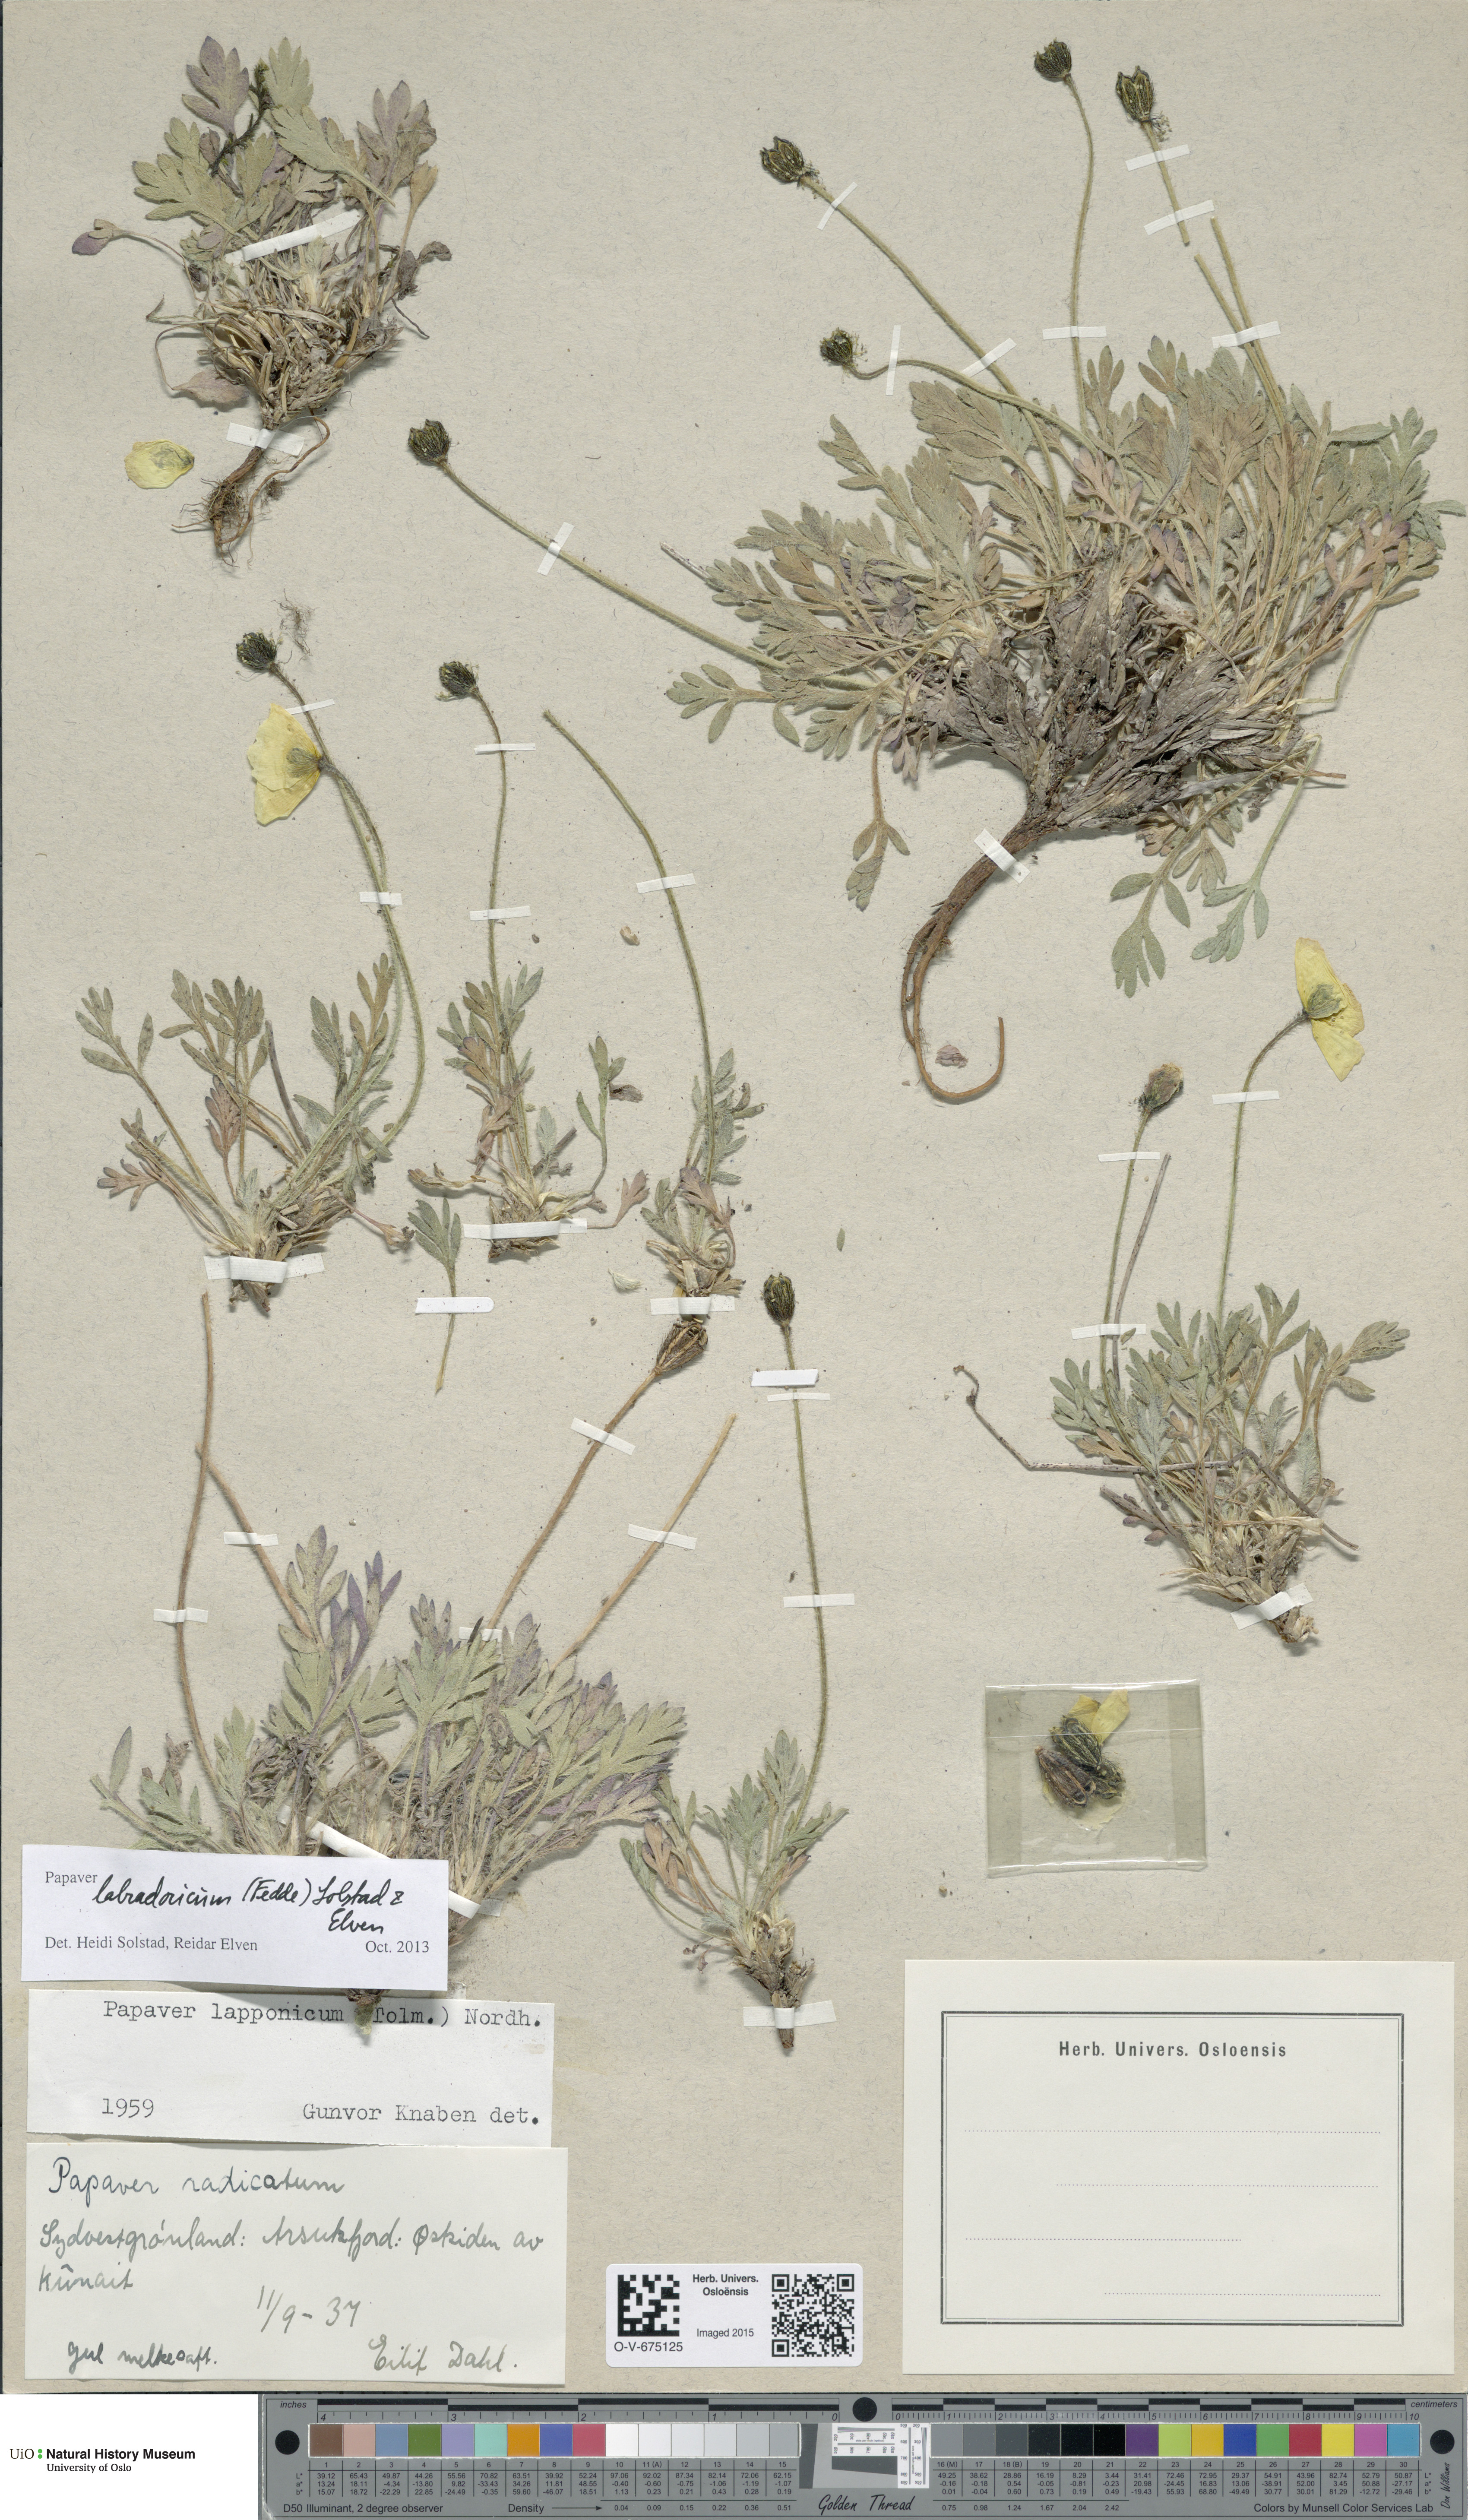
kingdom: Plantae
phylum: Tracheophyta
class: Magnoliopsida
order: Ranunculales
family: Papaveraceae
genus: Papaver
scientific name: Papaver radicatum
